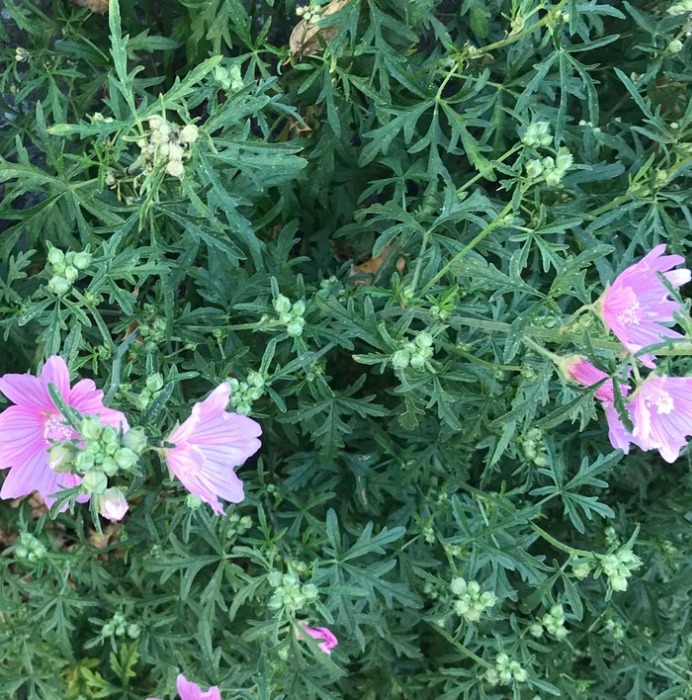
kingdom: Plantae
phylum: Tracheophyta
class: Magnoliopsida
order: Malvales
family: Malvaceae
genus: Malva
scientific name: Malva alcea
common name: Rosen-katost
